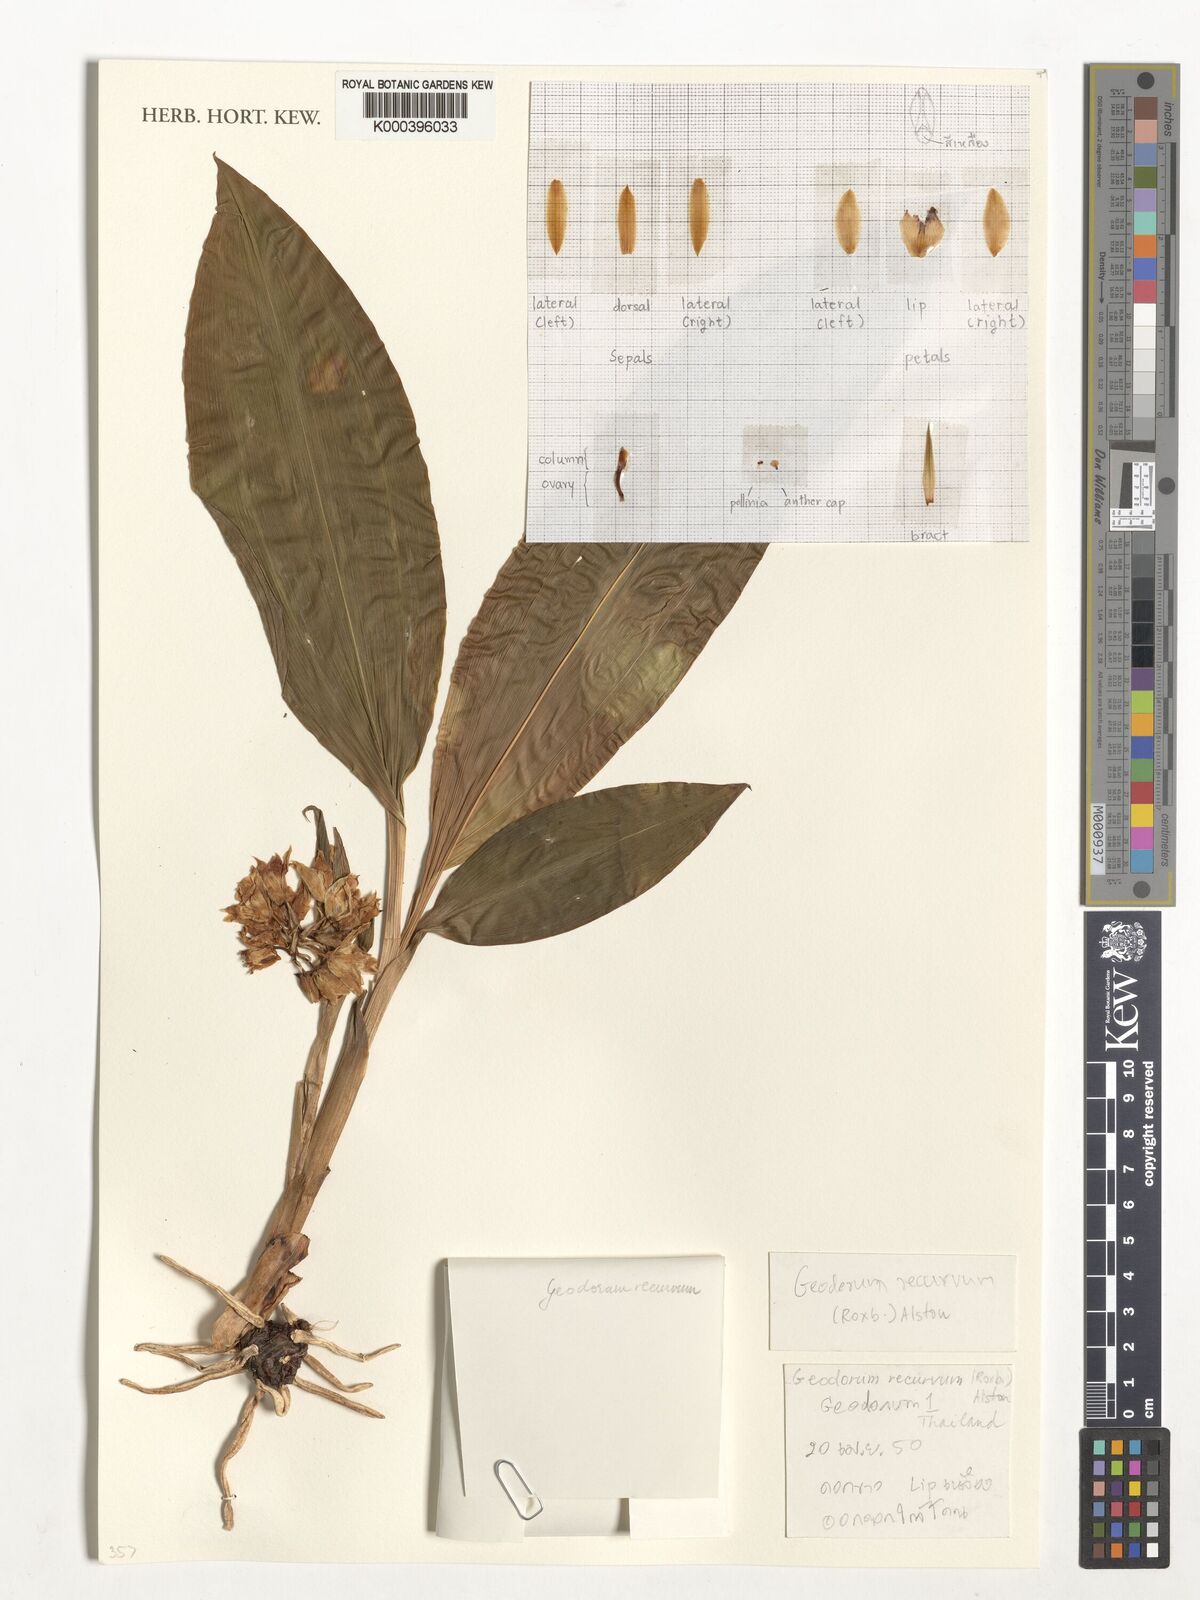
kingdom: Plantae
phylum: Tracheophyta
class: Liliopsida
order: Asparagales
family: Orchidaceae
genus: Eulophia
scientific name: Eulophia recurva
